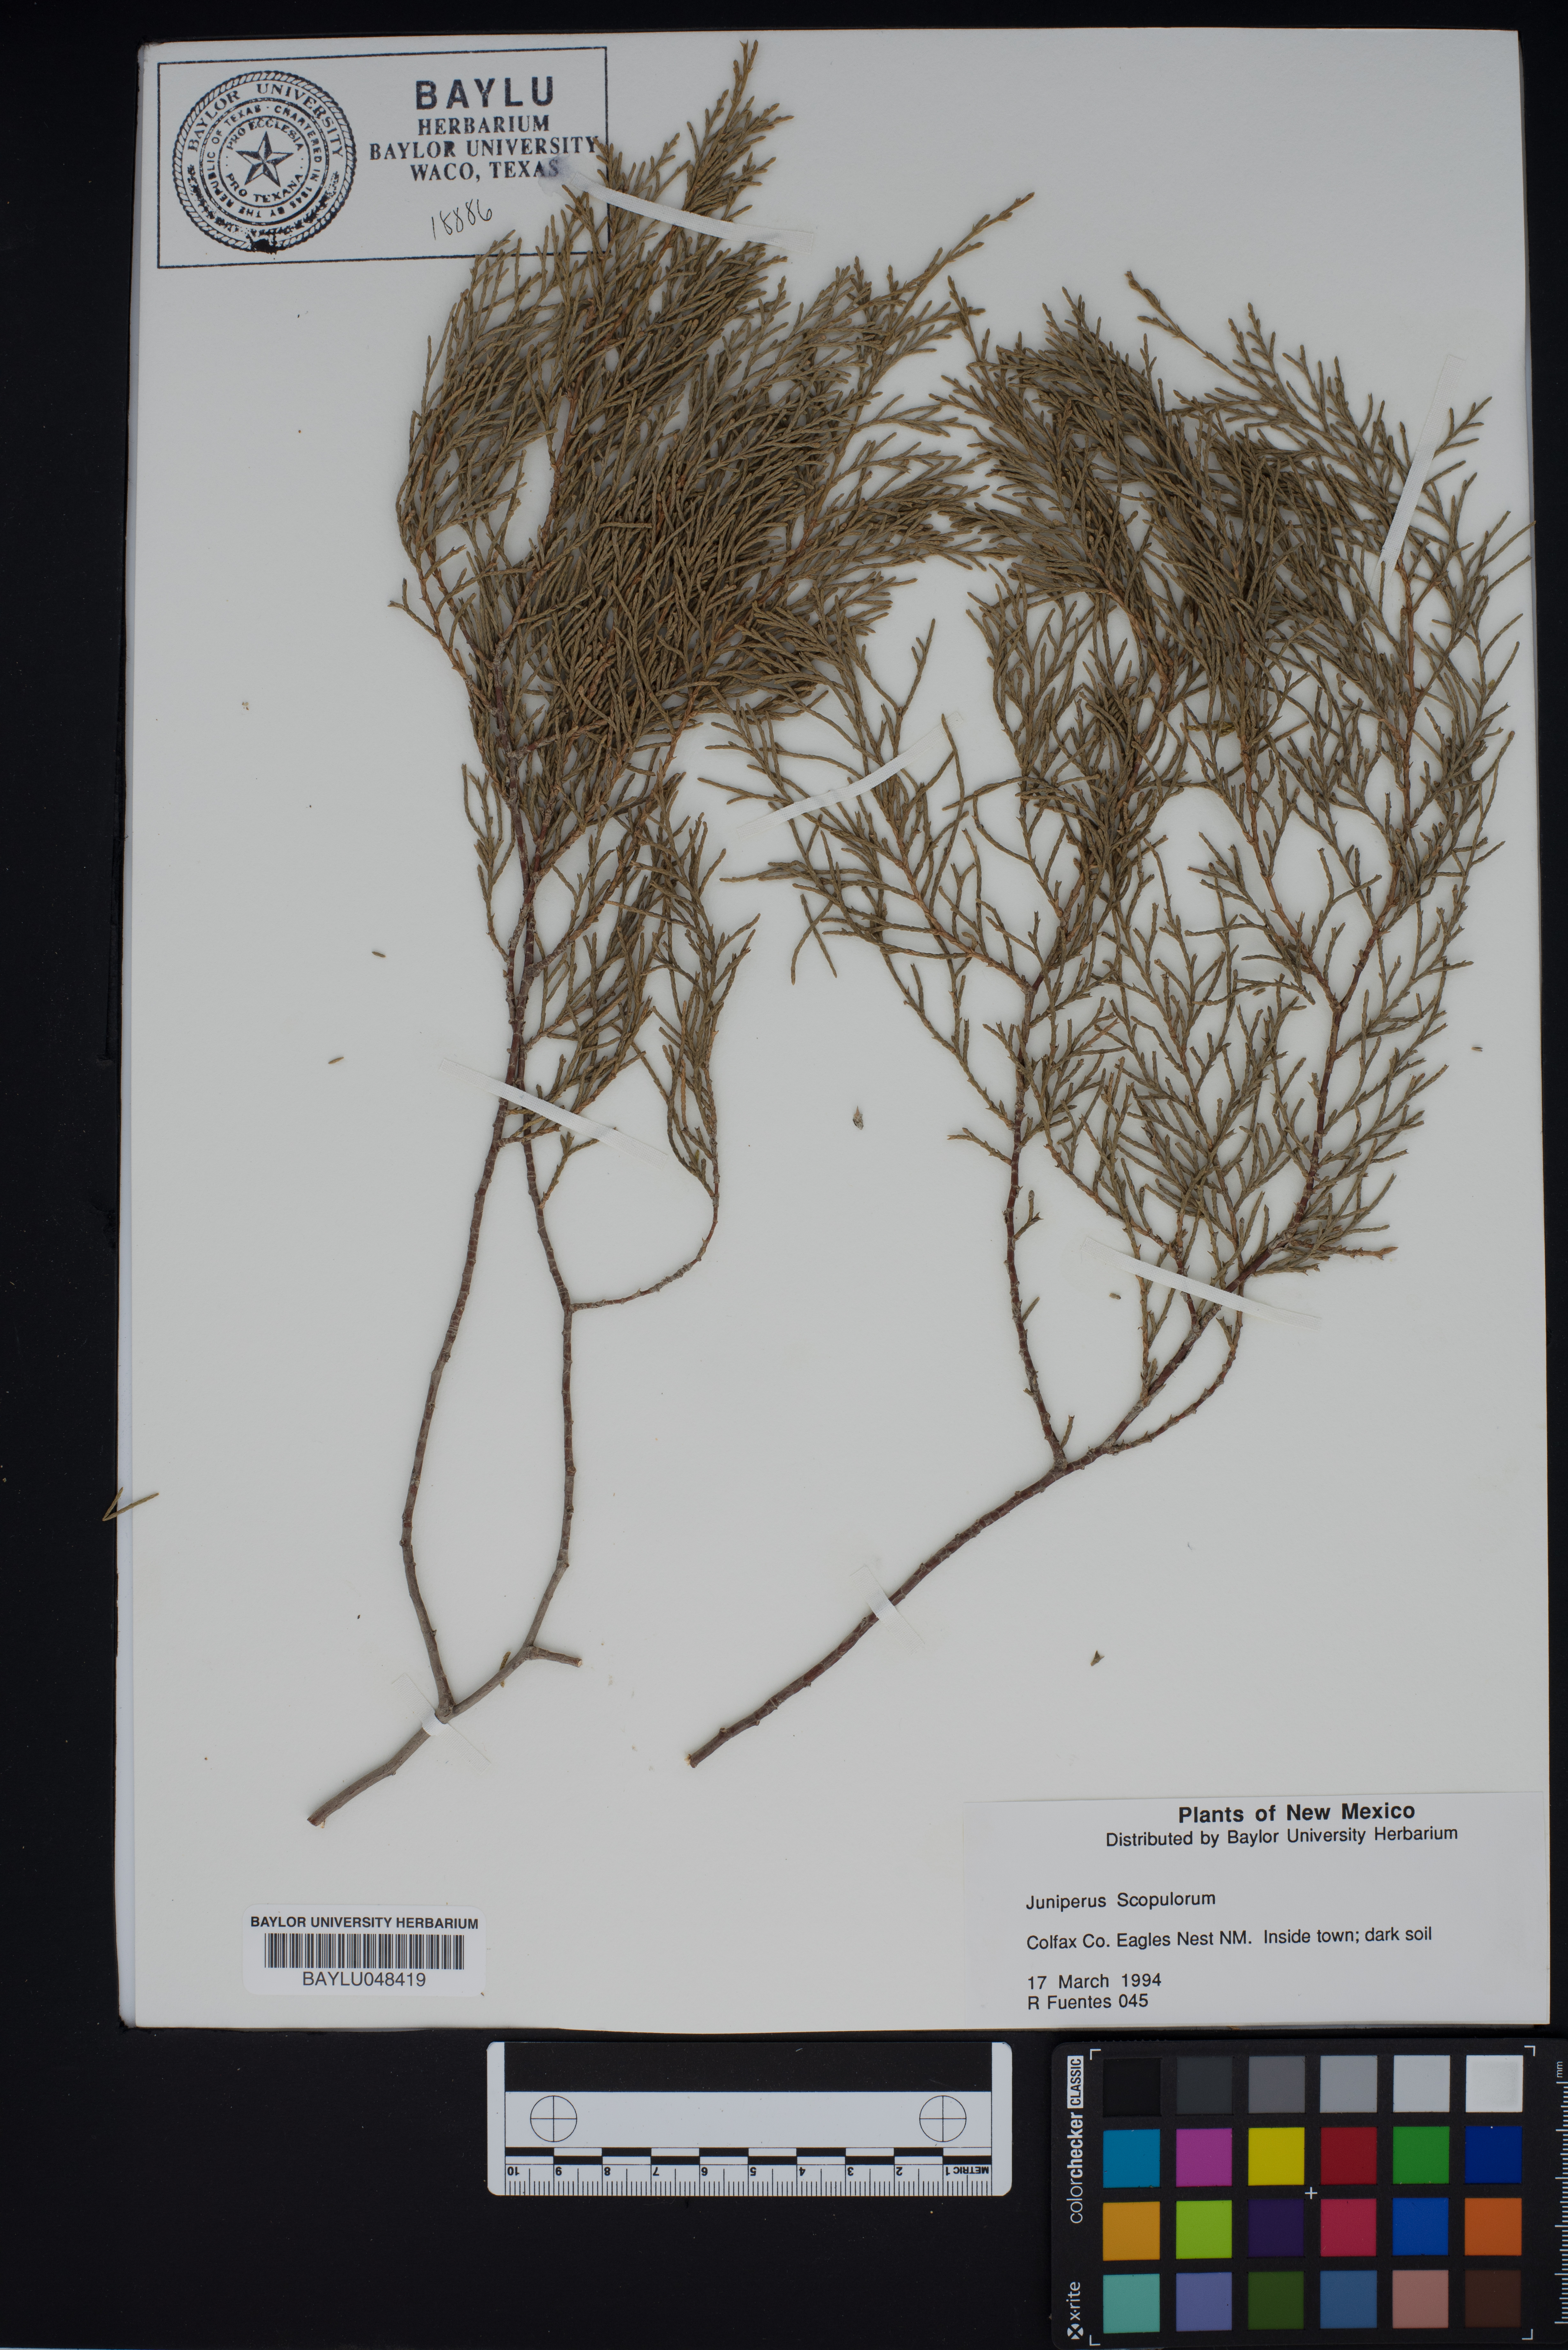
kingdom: Plantae
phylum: Tracheophyta
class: Pinopsida
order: Pinales
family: Cupressaceae
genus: Juniperus
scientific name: Juniperus scopulorum
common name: Rocky mountain juniper
